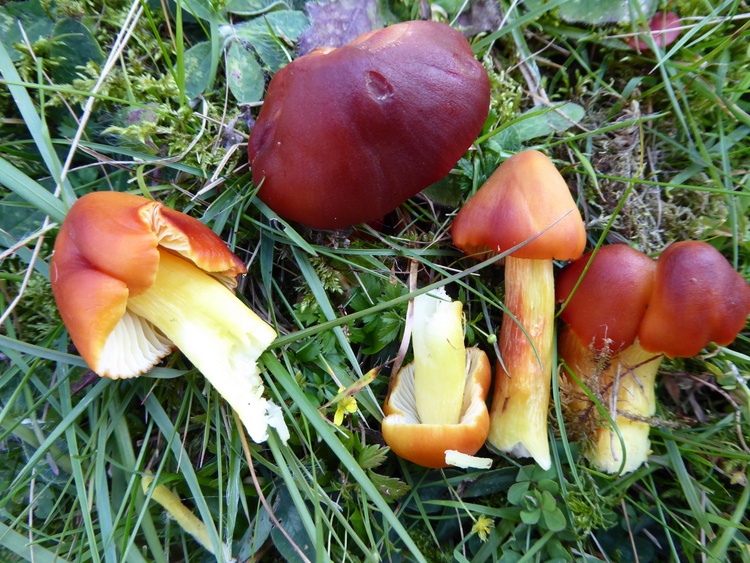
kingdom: Fungi
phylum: Basidiomycota
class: Agaricomycetes
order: Agaricales
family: Hygrophoraceae
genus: Hygrocybe
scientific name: Hygrocybe punicea
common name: skarlagen-vokshat
